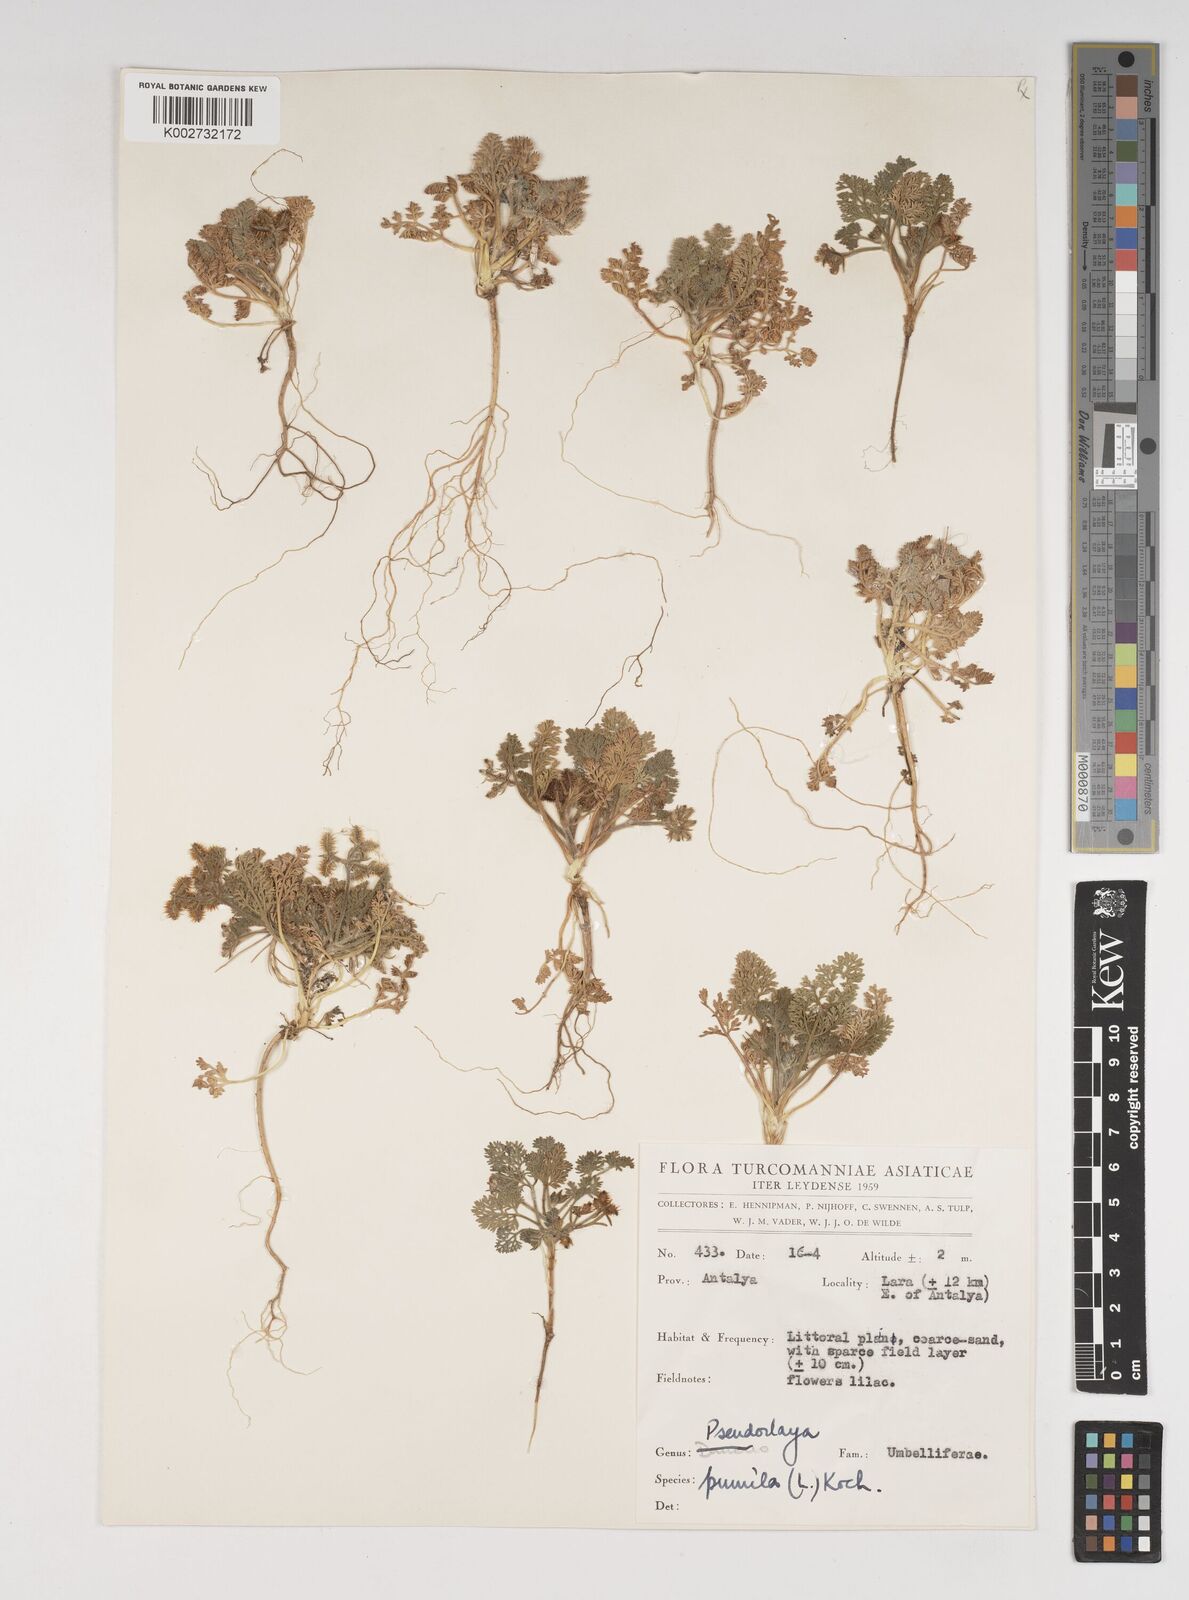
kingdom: Plantae
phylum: Tracheophyta
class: Magnoliopsida
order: Apiales
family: Apiaceae
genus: Daucus
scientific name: Daucus pumilus
